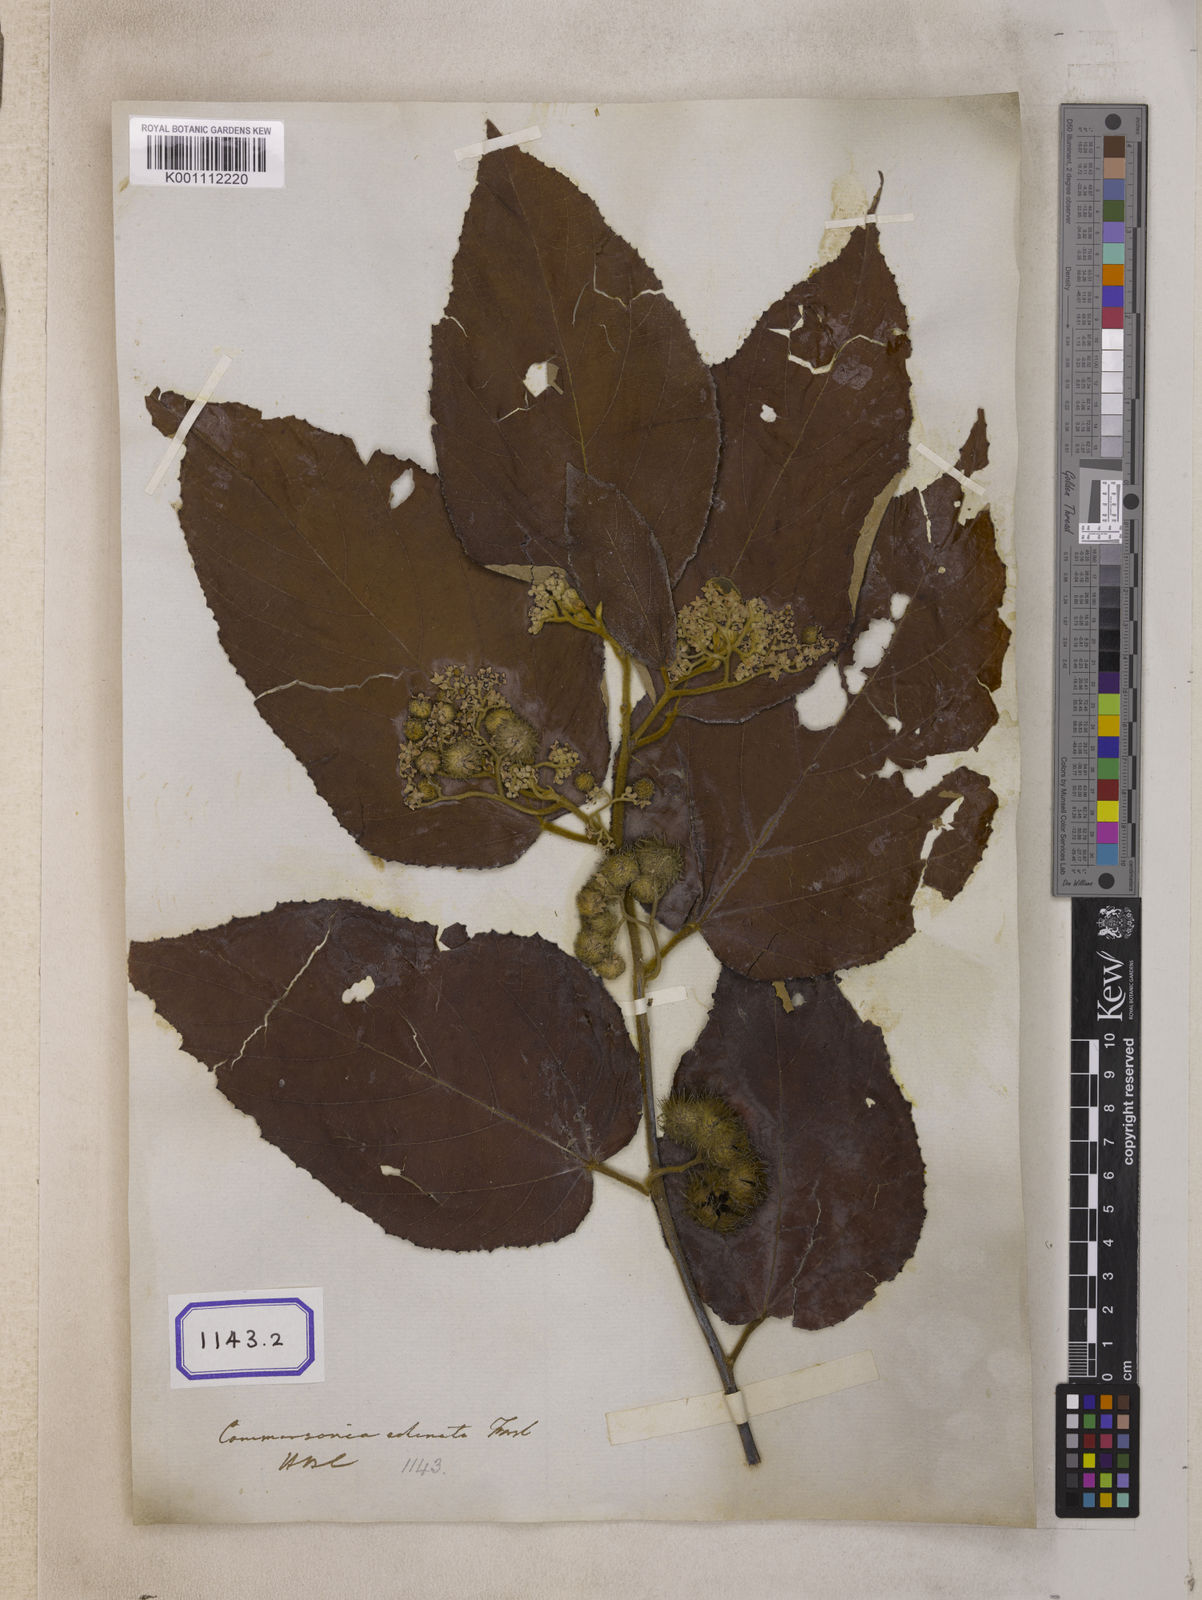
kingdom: Plantae
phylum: Tracheophyta
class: Magnoliopsida
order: Malvales
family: Malvaceae
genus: Commersonia
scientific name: Commersonia bartramia
